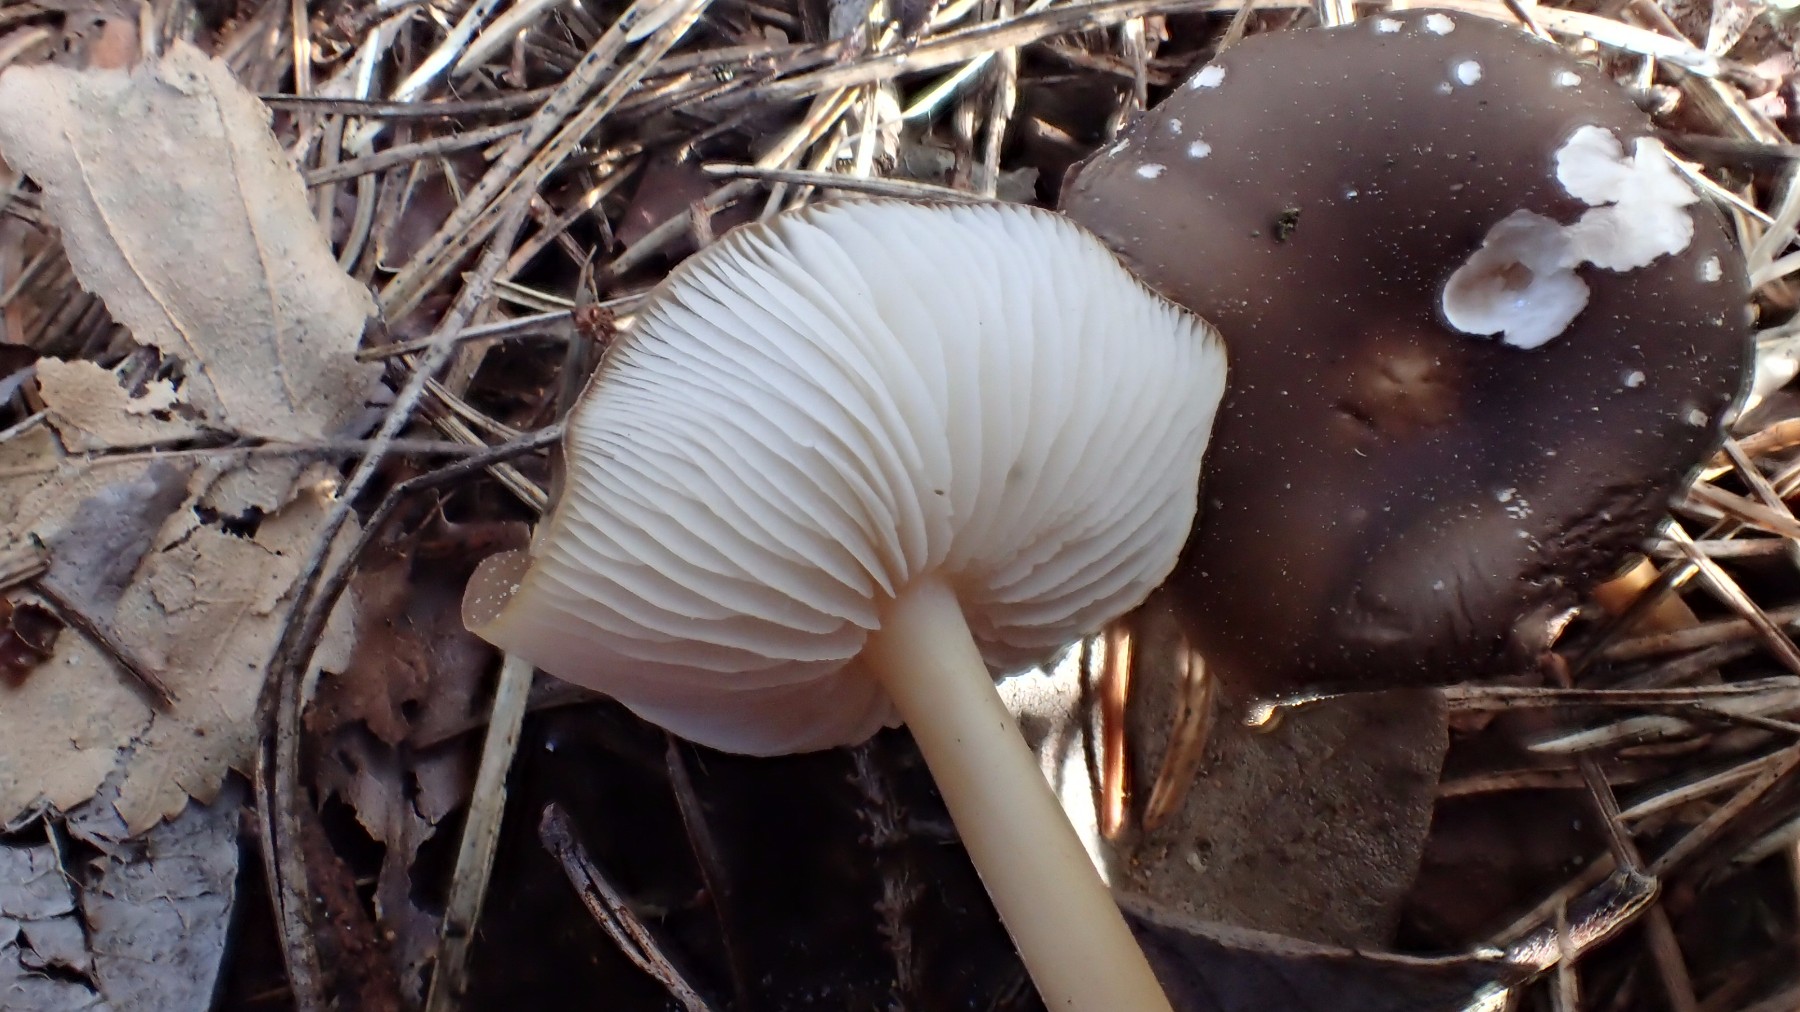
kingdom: Fungi
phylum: Basidiomycota
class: Agaricomycetes
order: Agaricales
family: Physalacriaceae
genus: Strobilurus
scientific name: Strobilurus stephanocystis
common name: fyrre-koglehat
